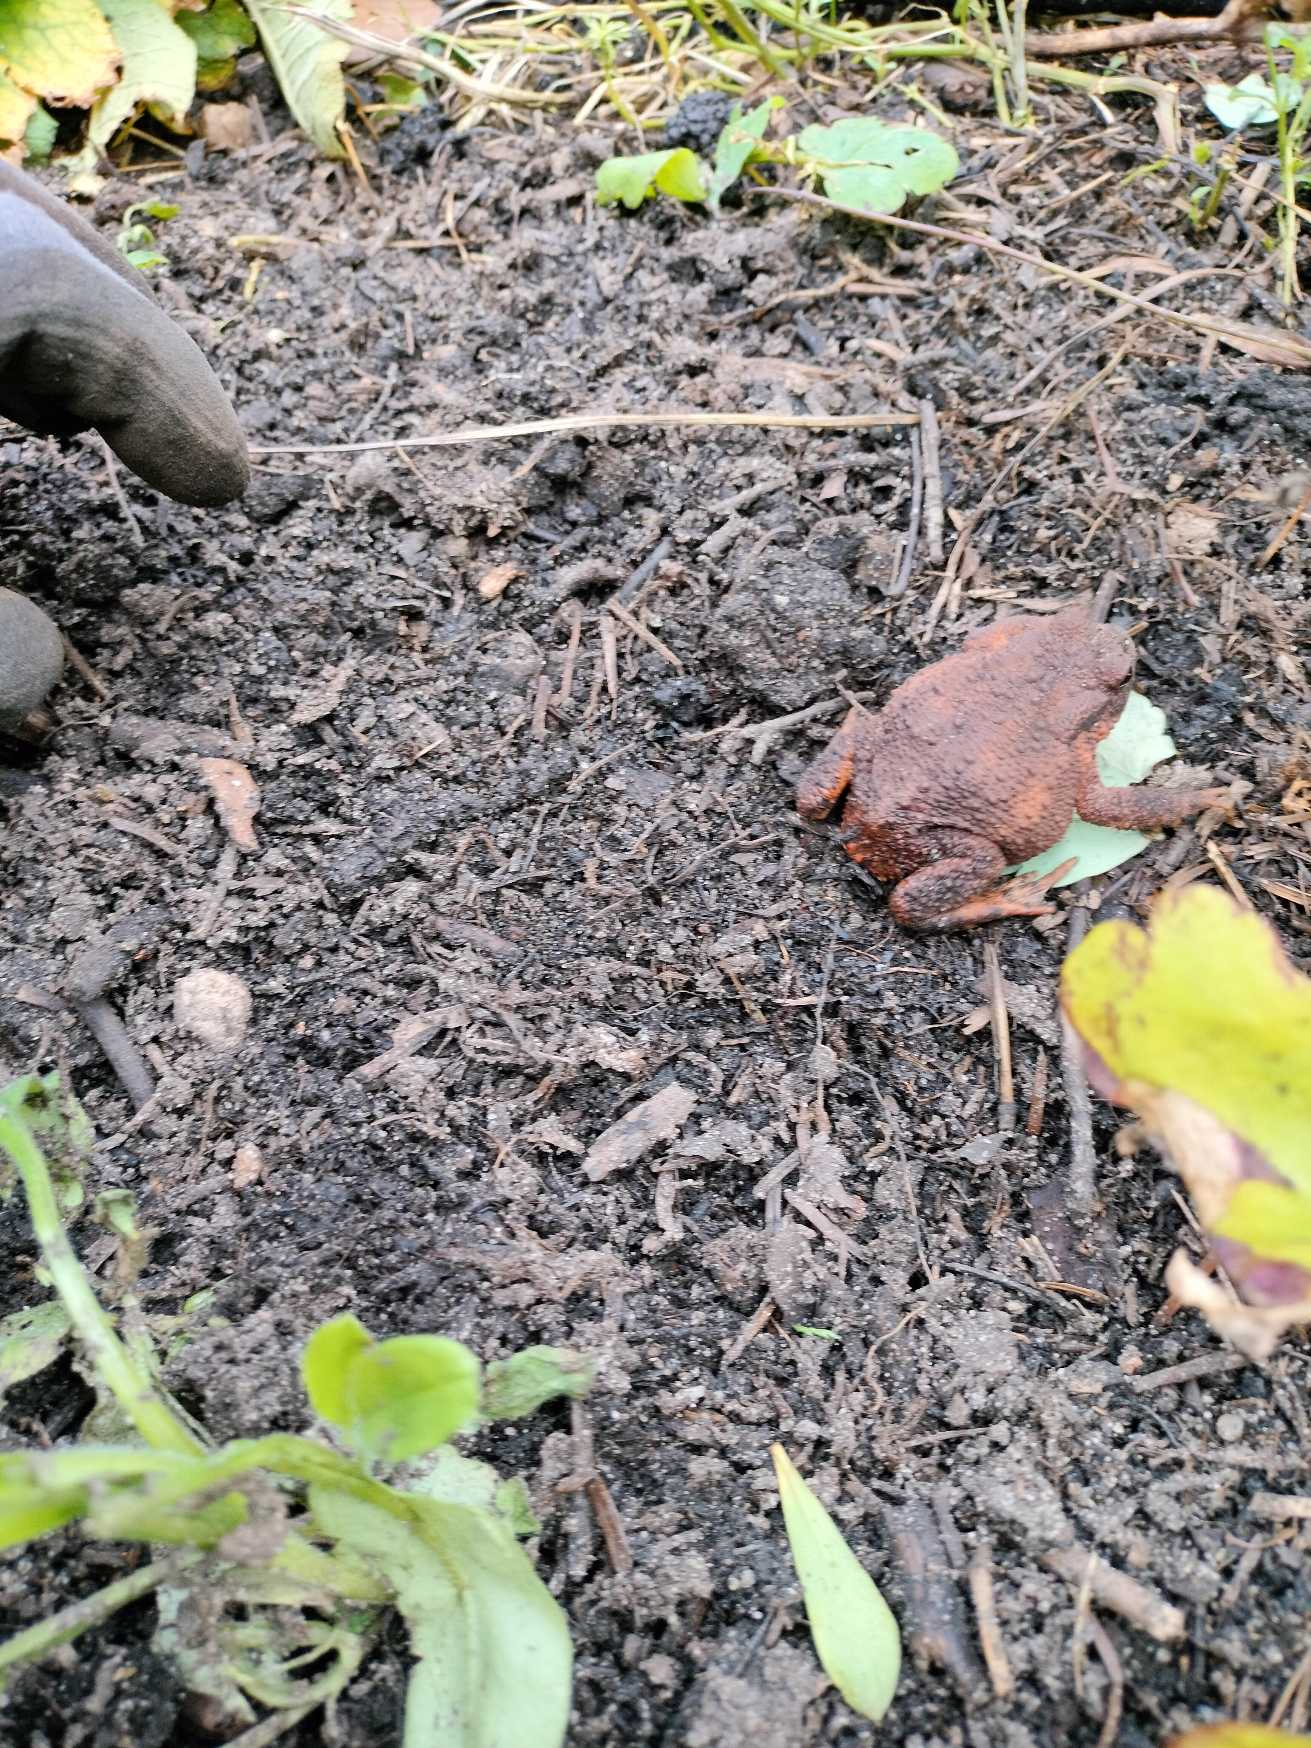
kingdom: Animalia
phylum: Chordata
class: Amphibia
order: Anura
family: Bufonidae
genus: Bufo
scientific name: Bufo bufo
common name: Skrubtudse
